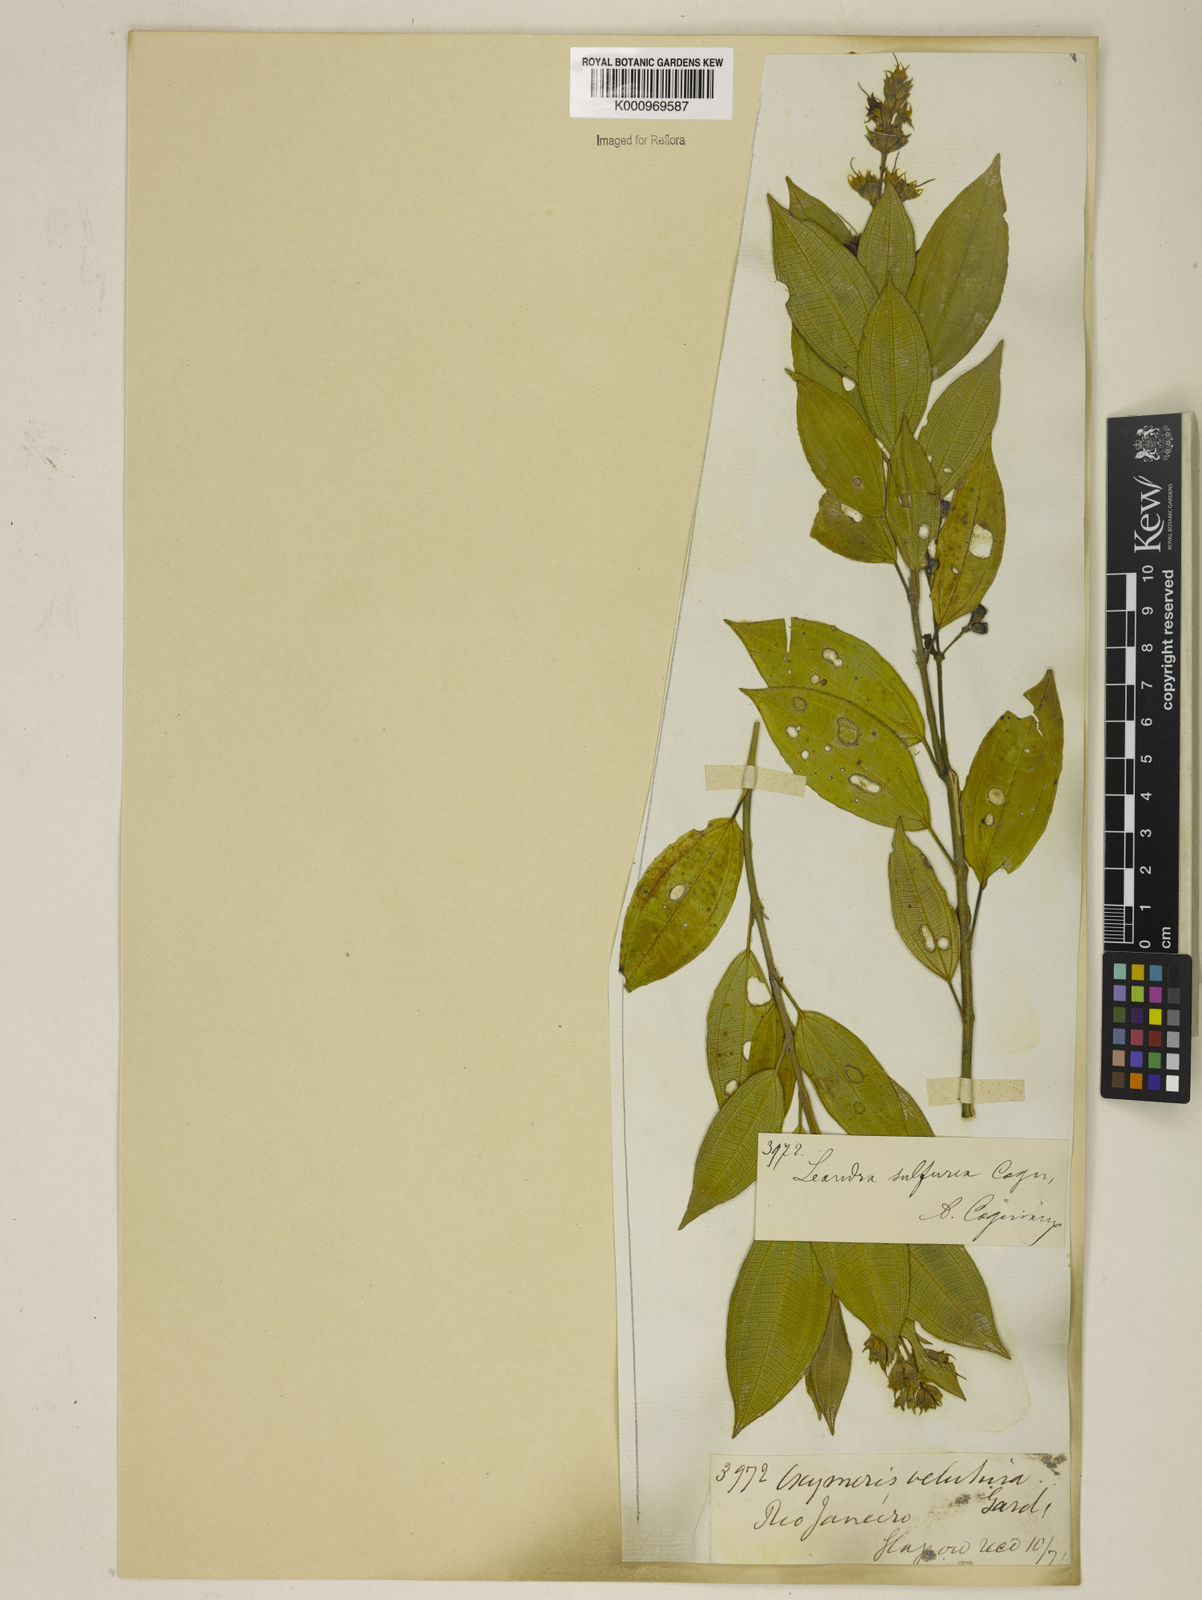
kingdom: Plantae
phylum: Tracheophyta
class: Magnoliopsida
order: Myrtales
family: Melastomataceae
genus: Miconia
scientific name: Miconia sulfurea
